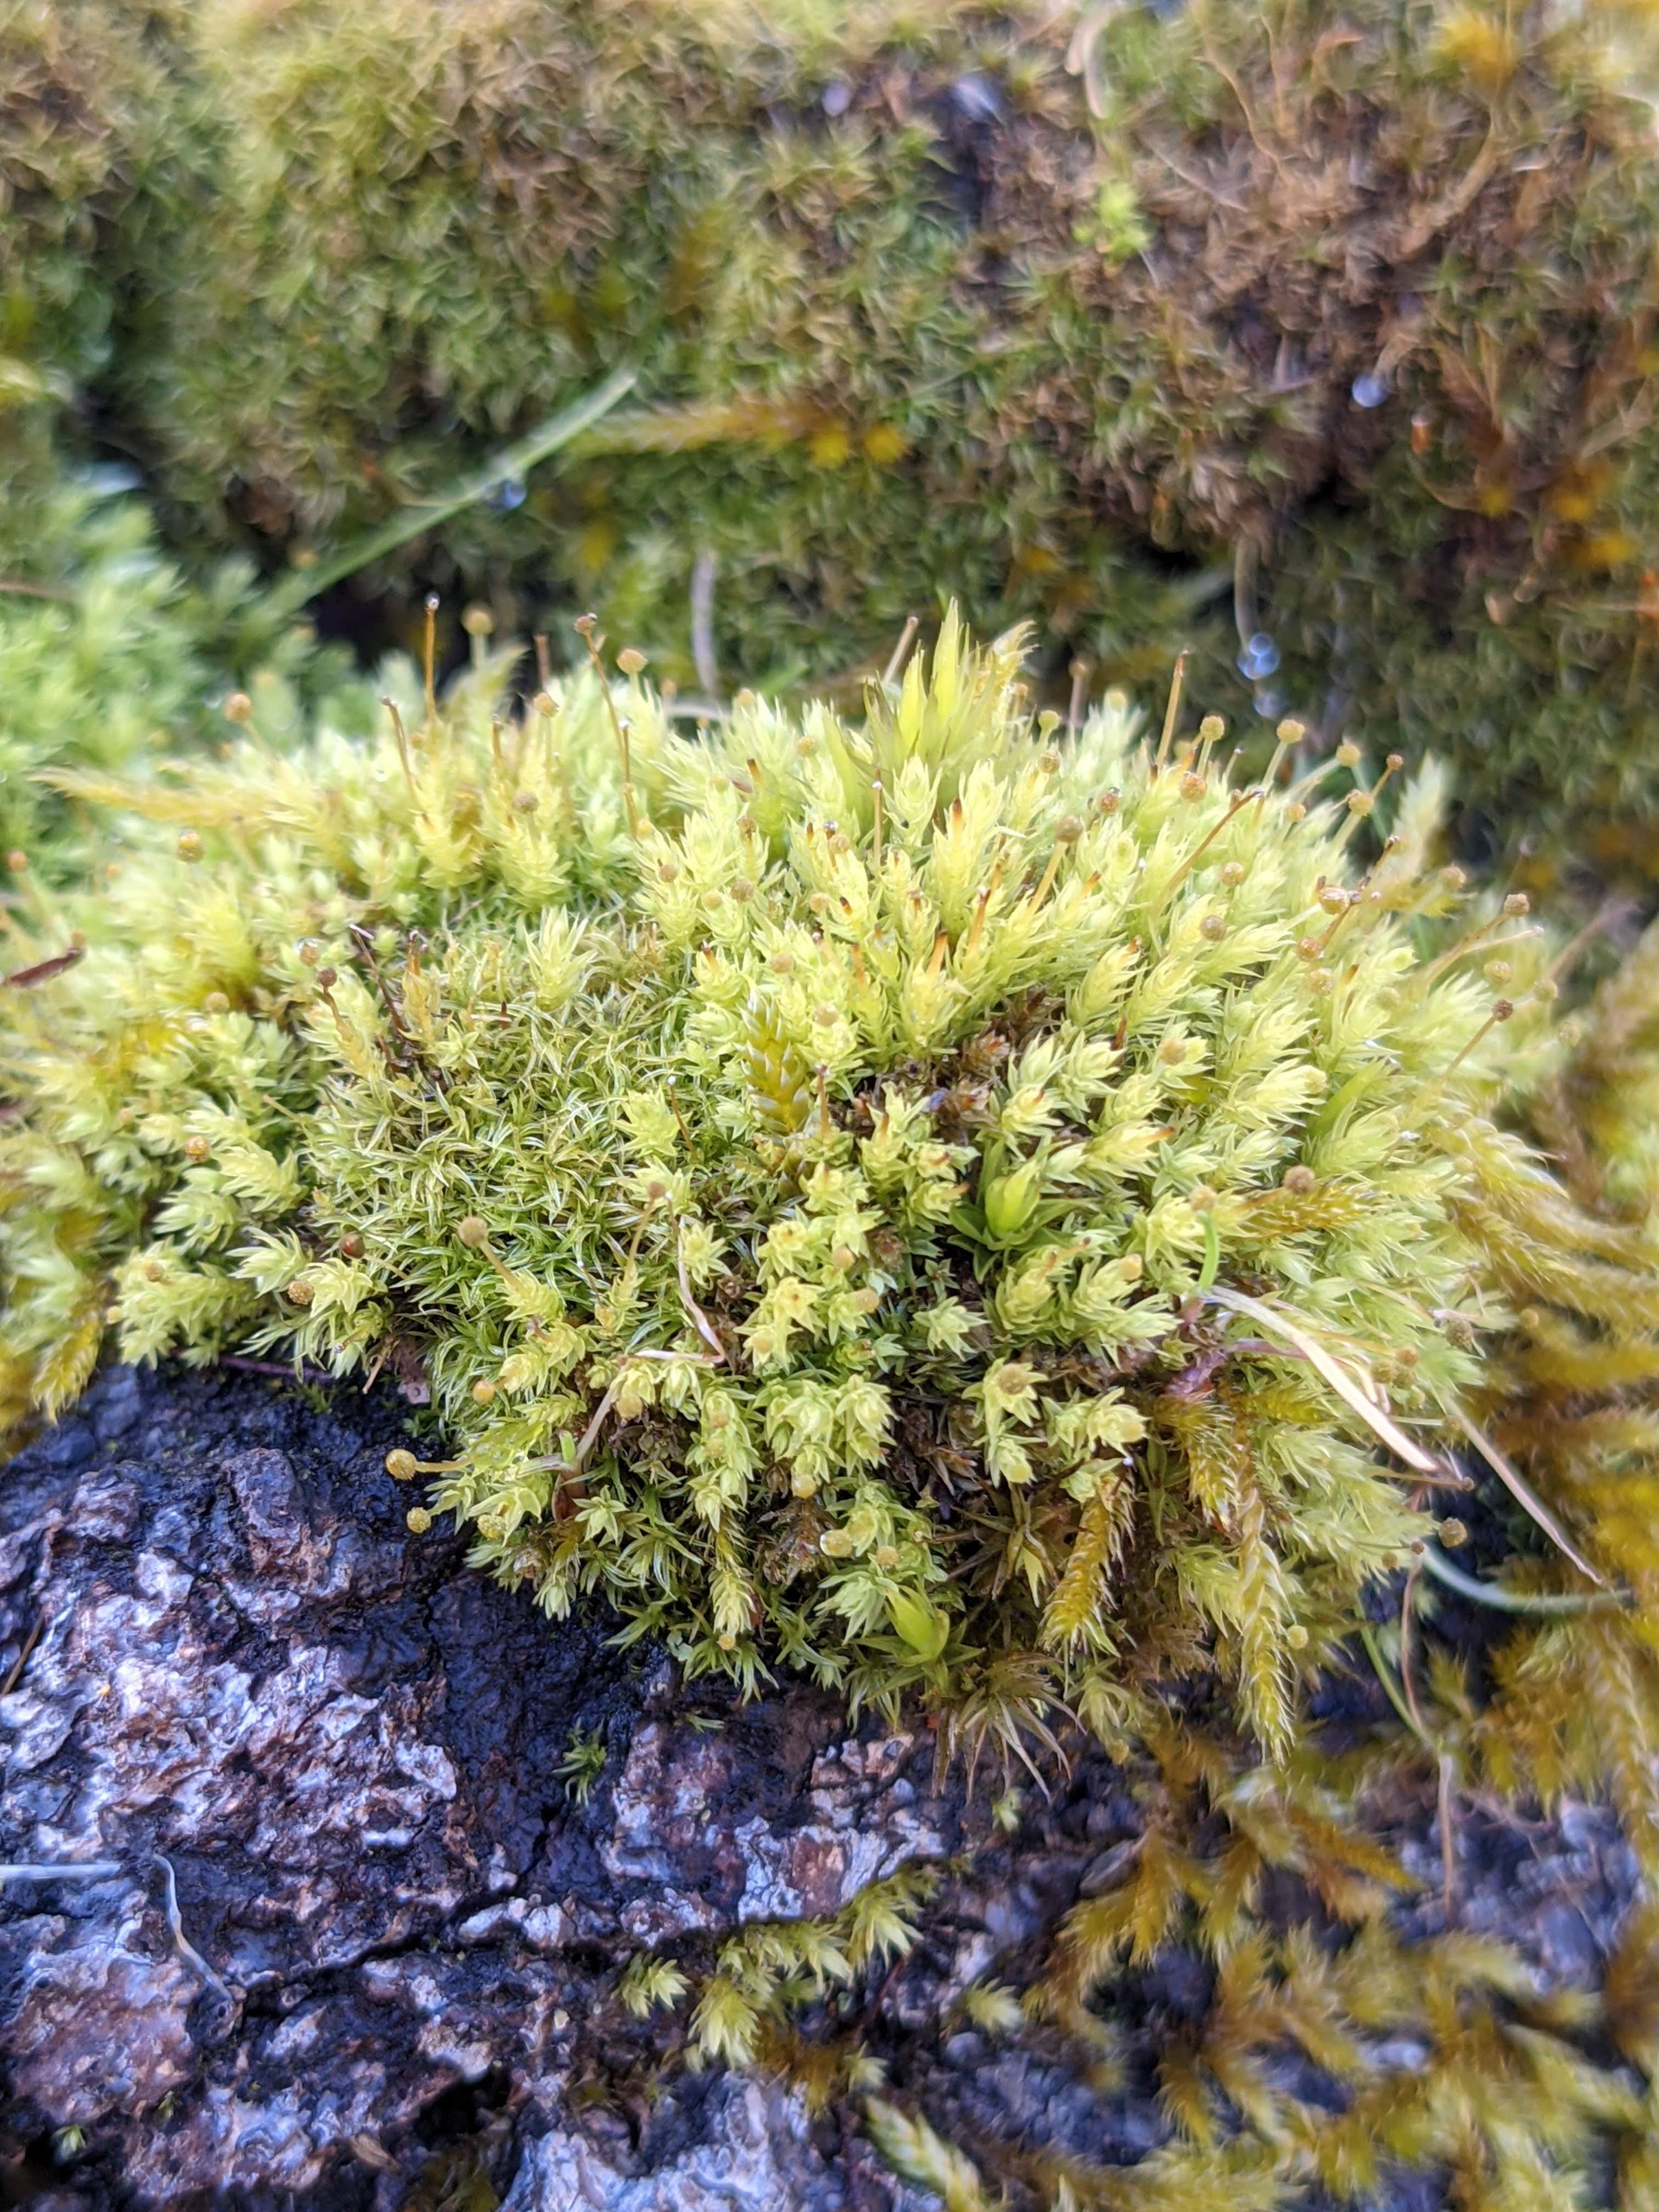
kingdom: Plantae
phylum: Bryophyta
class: Bryopsida
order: Aulacomniales
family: Aulacomniaceae
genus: Aulacomnium
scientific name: Aulacomnium androgynum
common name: Kugle-filtmos
